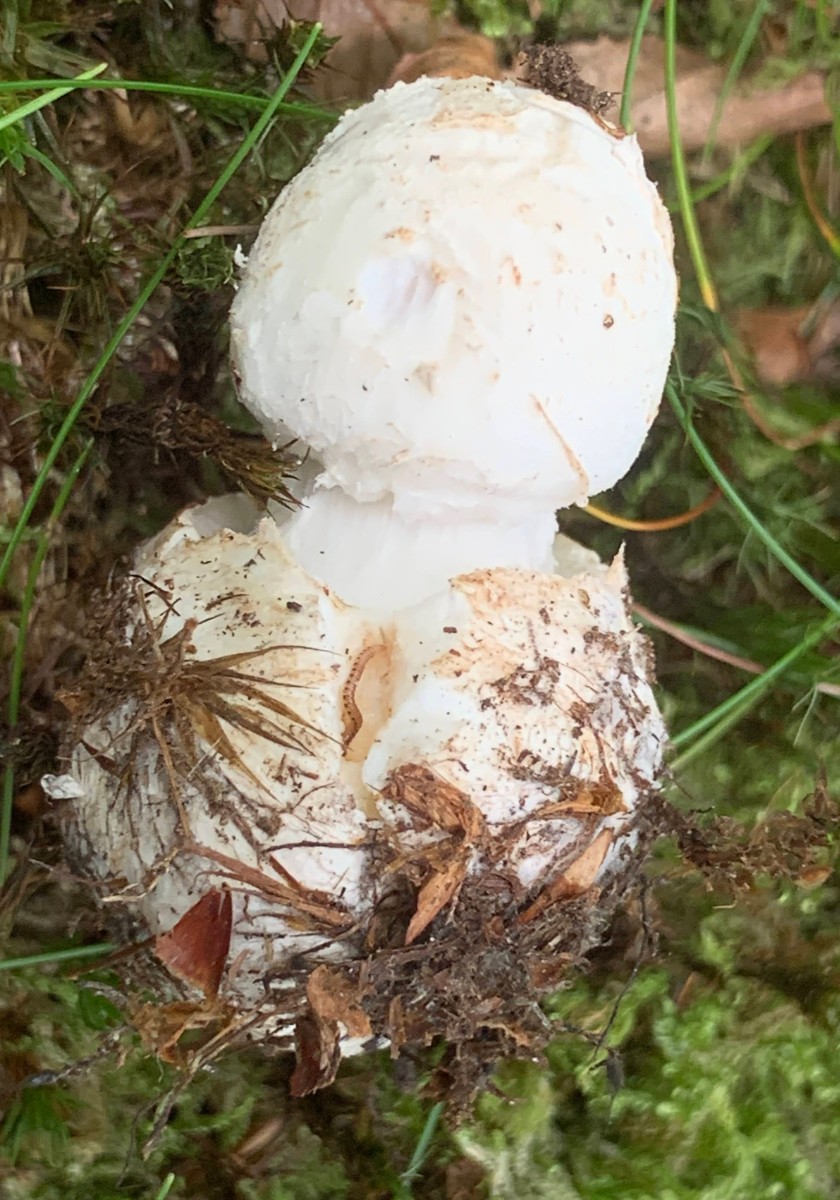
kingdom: Fungi
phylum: Basidiomycota
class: Agaricomycetes
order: Agaricales
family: Amanitaceae
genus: Amanita
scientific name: Amanita citrina
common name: kugleknoldet fluesvamp
